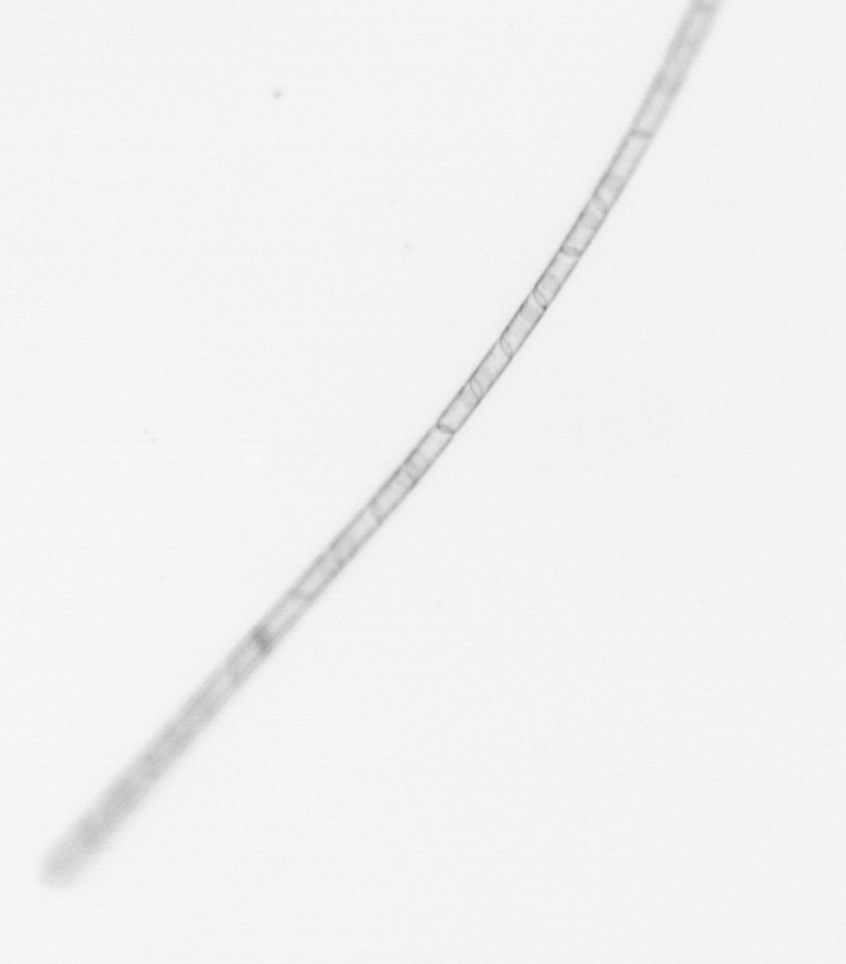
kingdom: Chromista
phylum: Ochrophyta
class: Bacillariophyceae
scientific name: Bacillariophyceae
